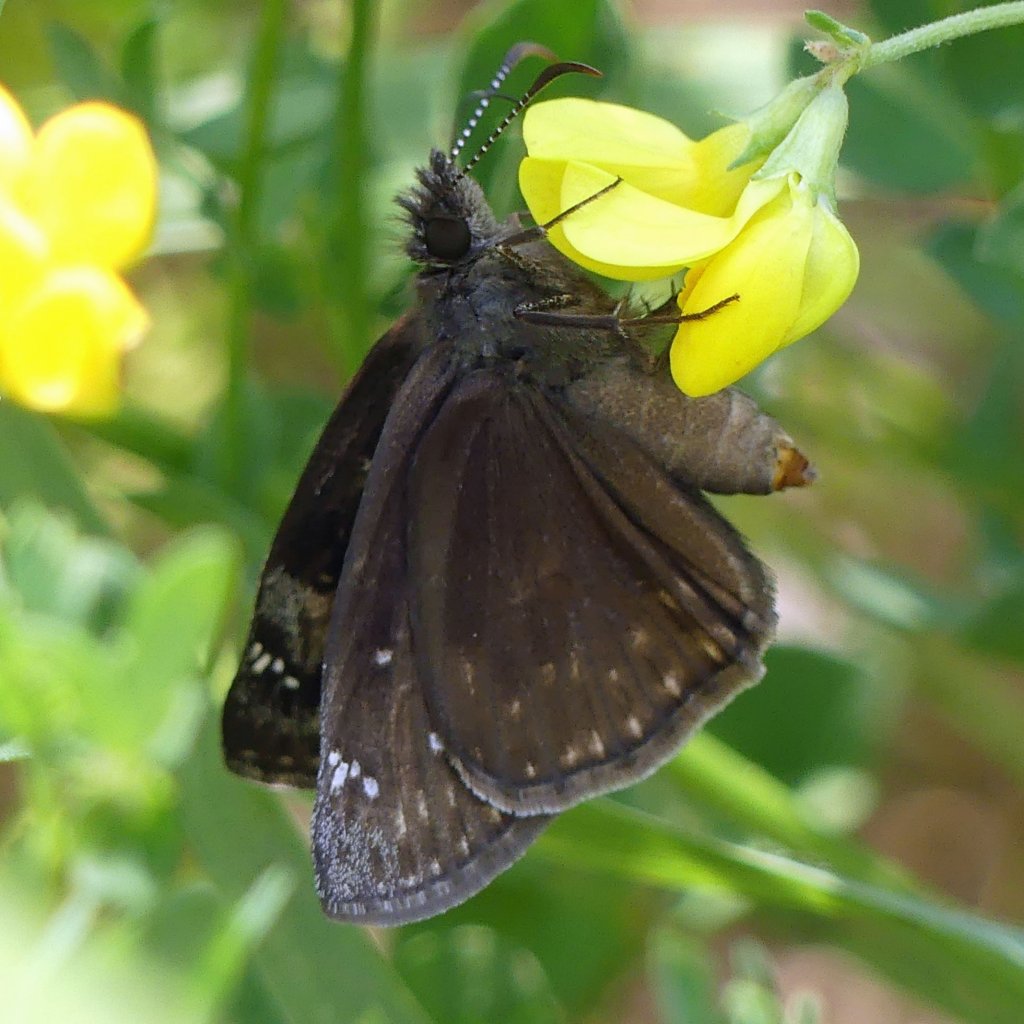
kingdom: Animalia
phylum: Arthropoda
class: Insecta
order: Lepidoptera
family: Hesperiidae
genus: Gesta
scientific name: Gesta
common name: Wild Indigo Duskywing
